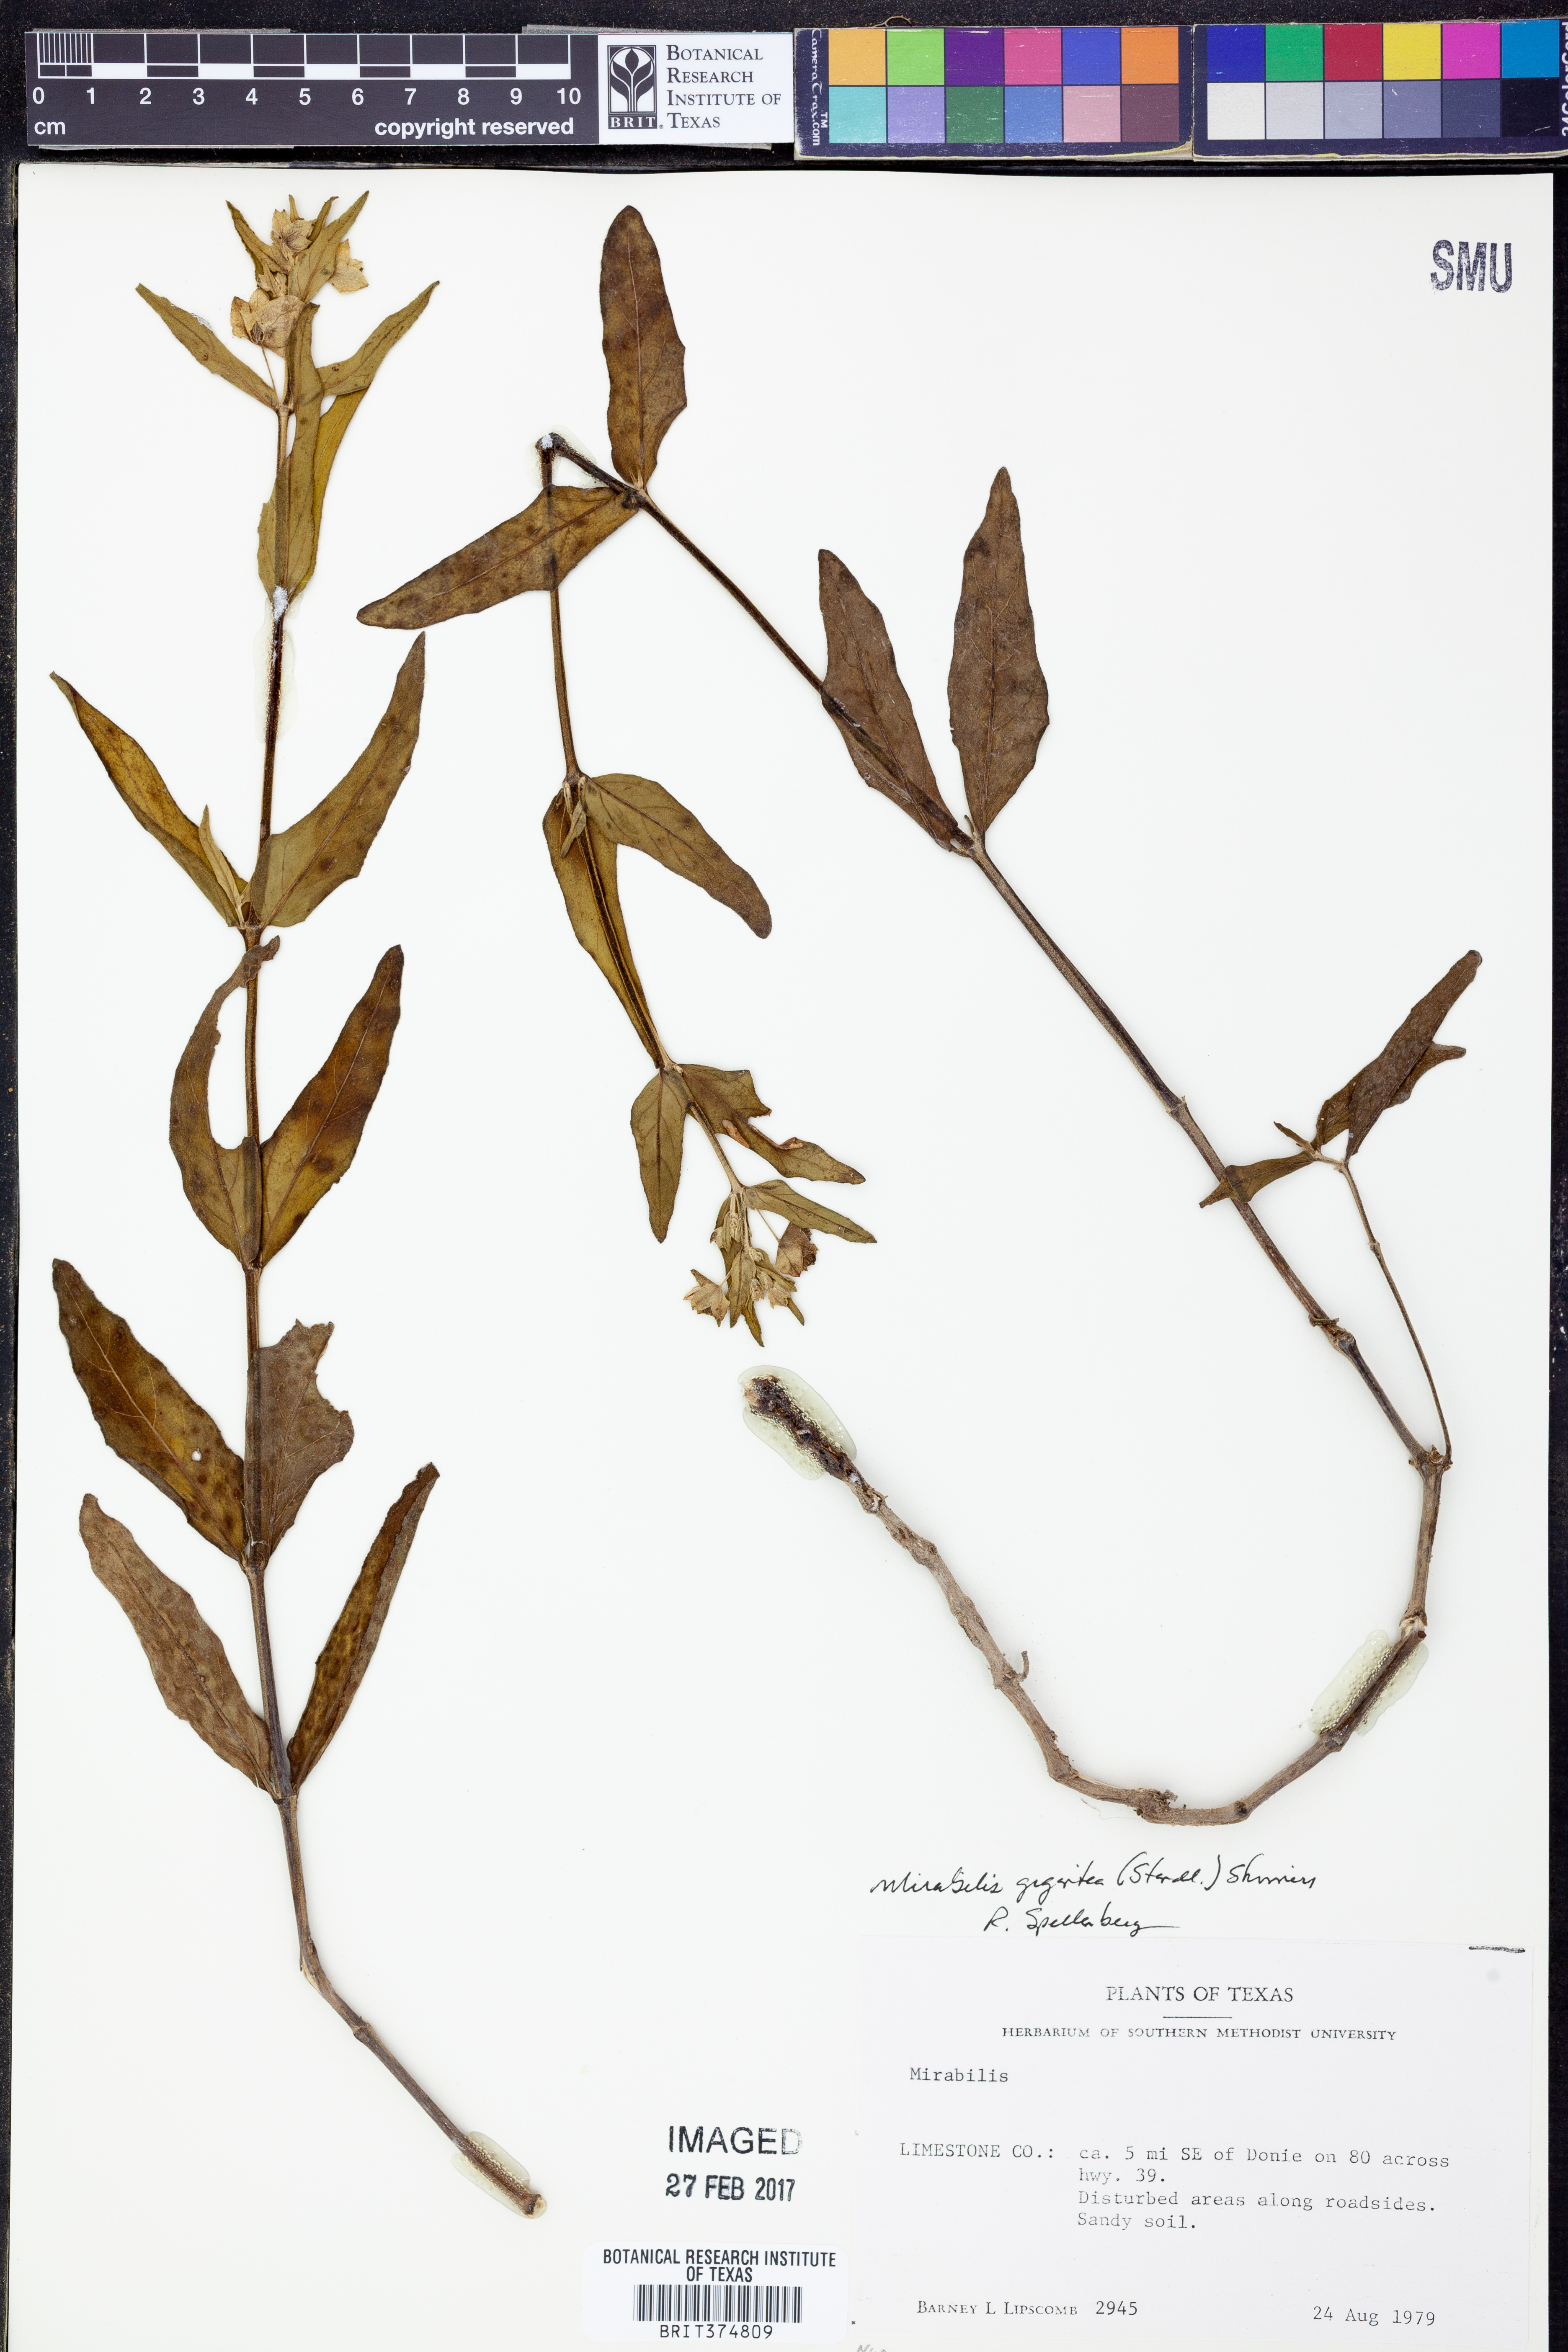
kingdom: Plantae
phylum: Tracheophyta
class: Magnoliopsida
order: Caryophyllales
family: Nyctaginaceae
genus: Mirabilis
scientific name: Mirabilis gigantea
